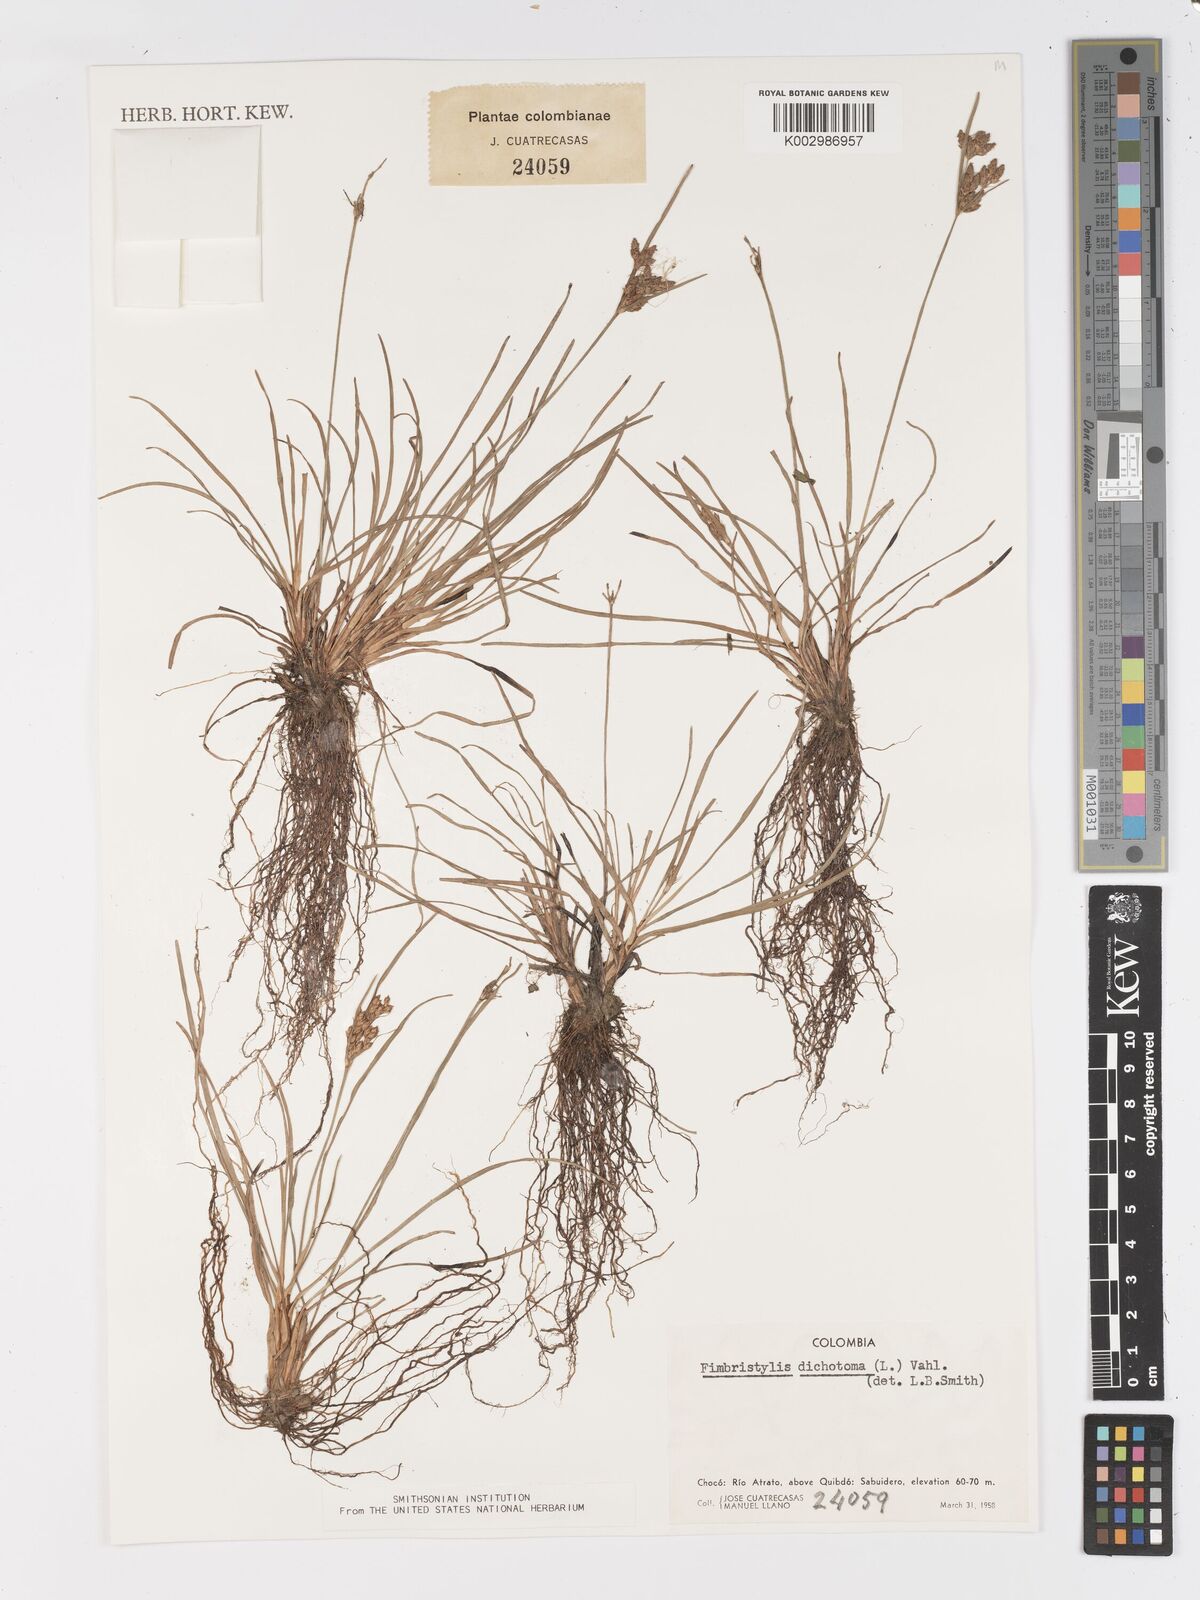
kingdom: Plantae
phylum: Tracheophyta
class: Liliopsida
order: Poales
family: Cyperaceae
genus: Fimbristylis
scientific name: Fimbristylis dichotoma
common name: Forked fimbry
